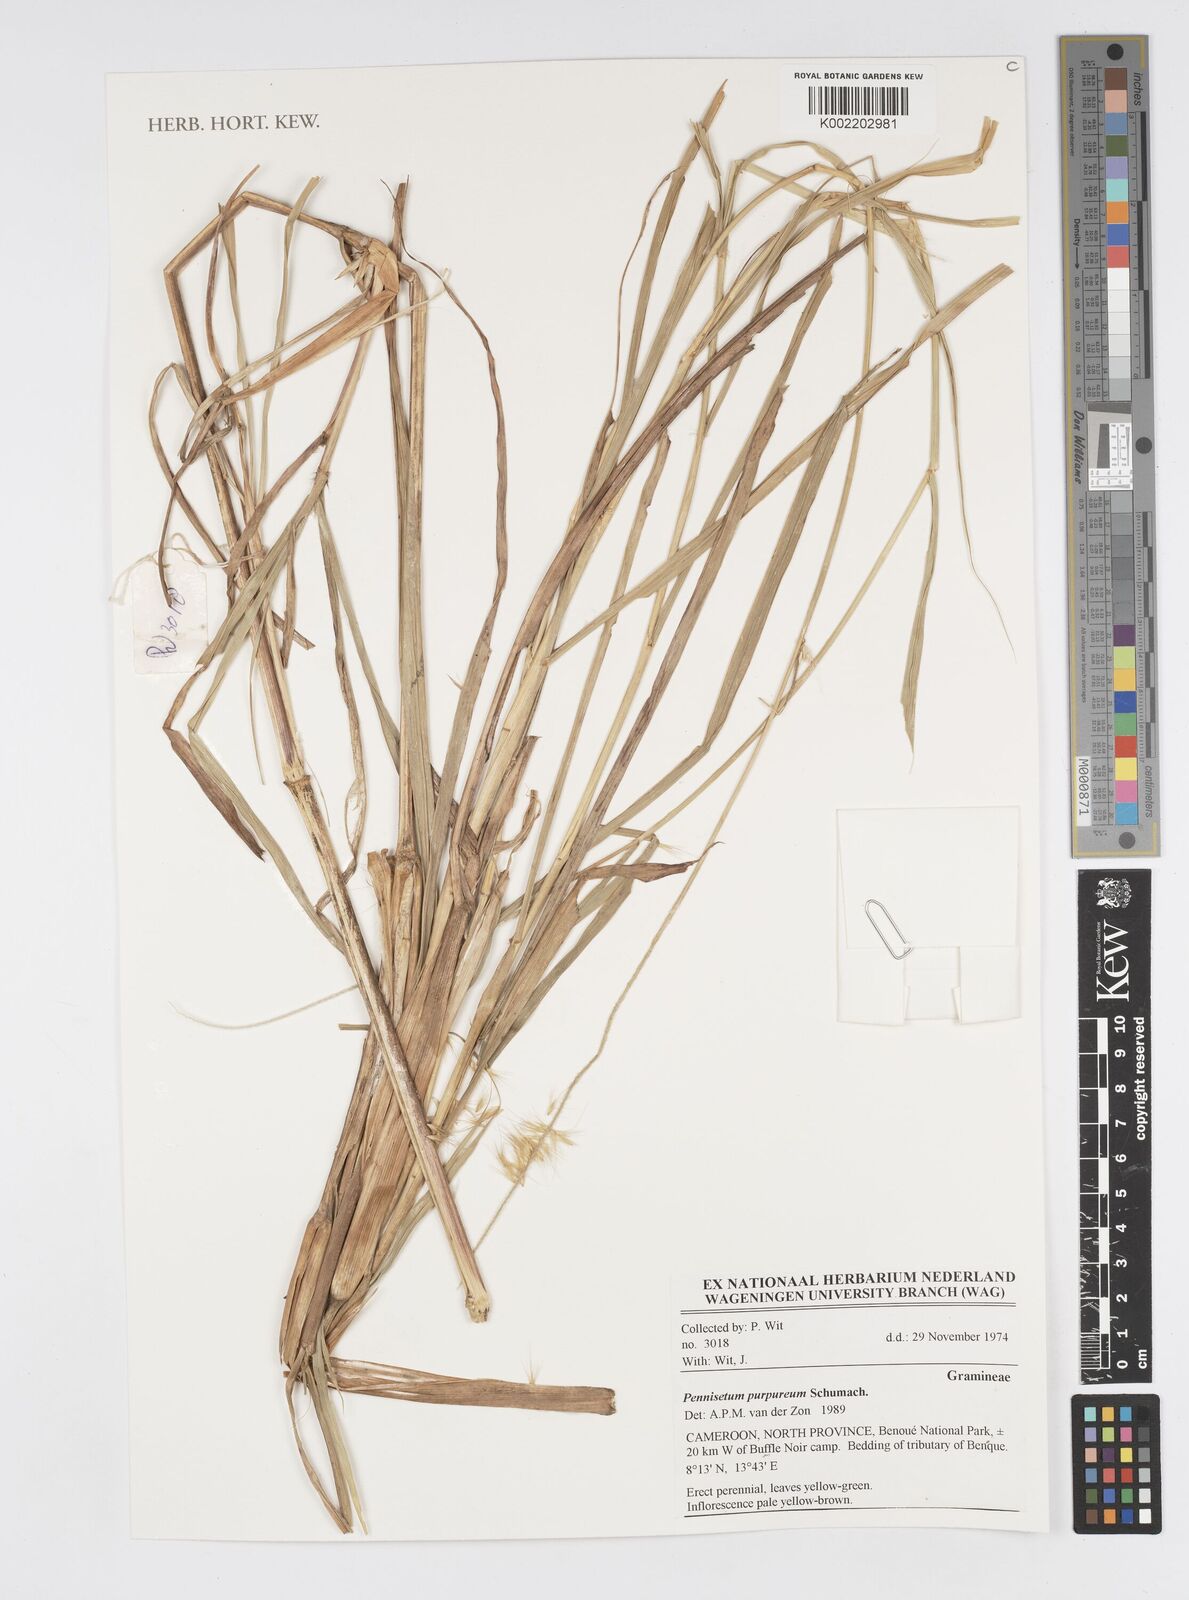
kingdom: Plantae
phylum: Tracheophyta
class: Liliopsida
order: Poales
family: Poaceae
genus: Cenchrus
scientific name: Cenchrus purpureus
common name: Elephant grass
